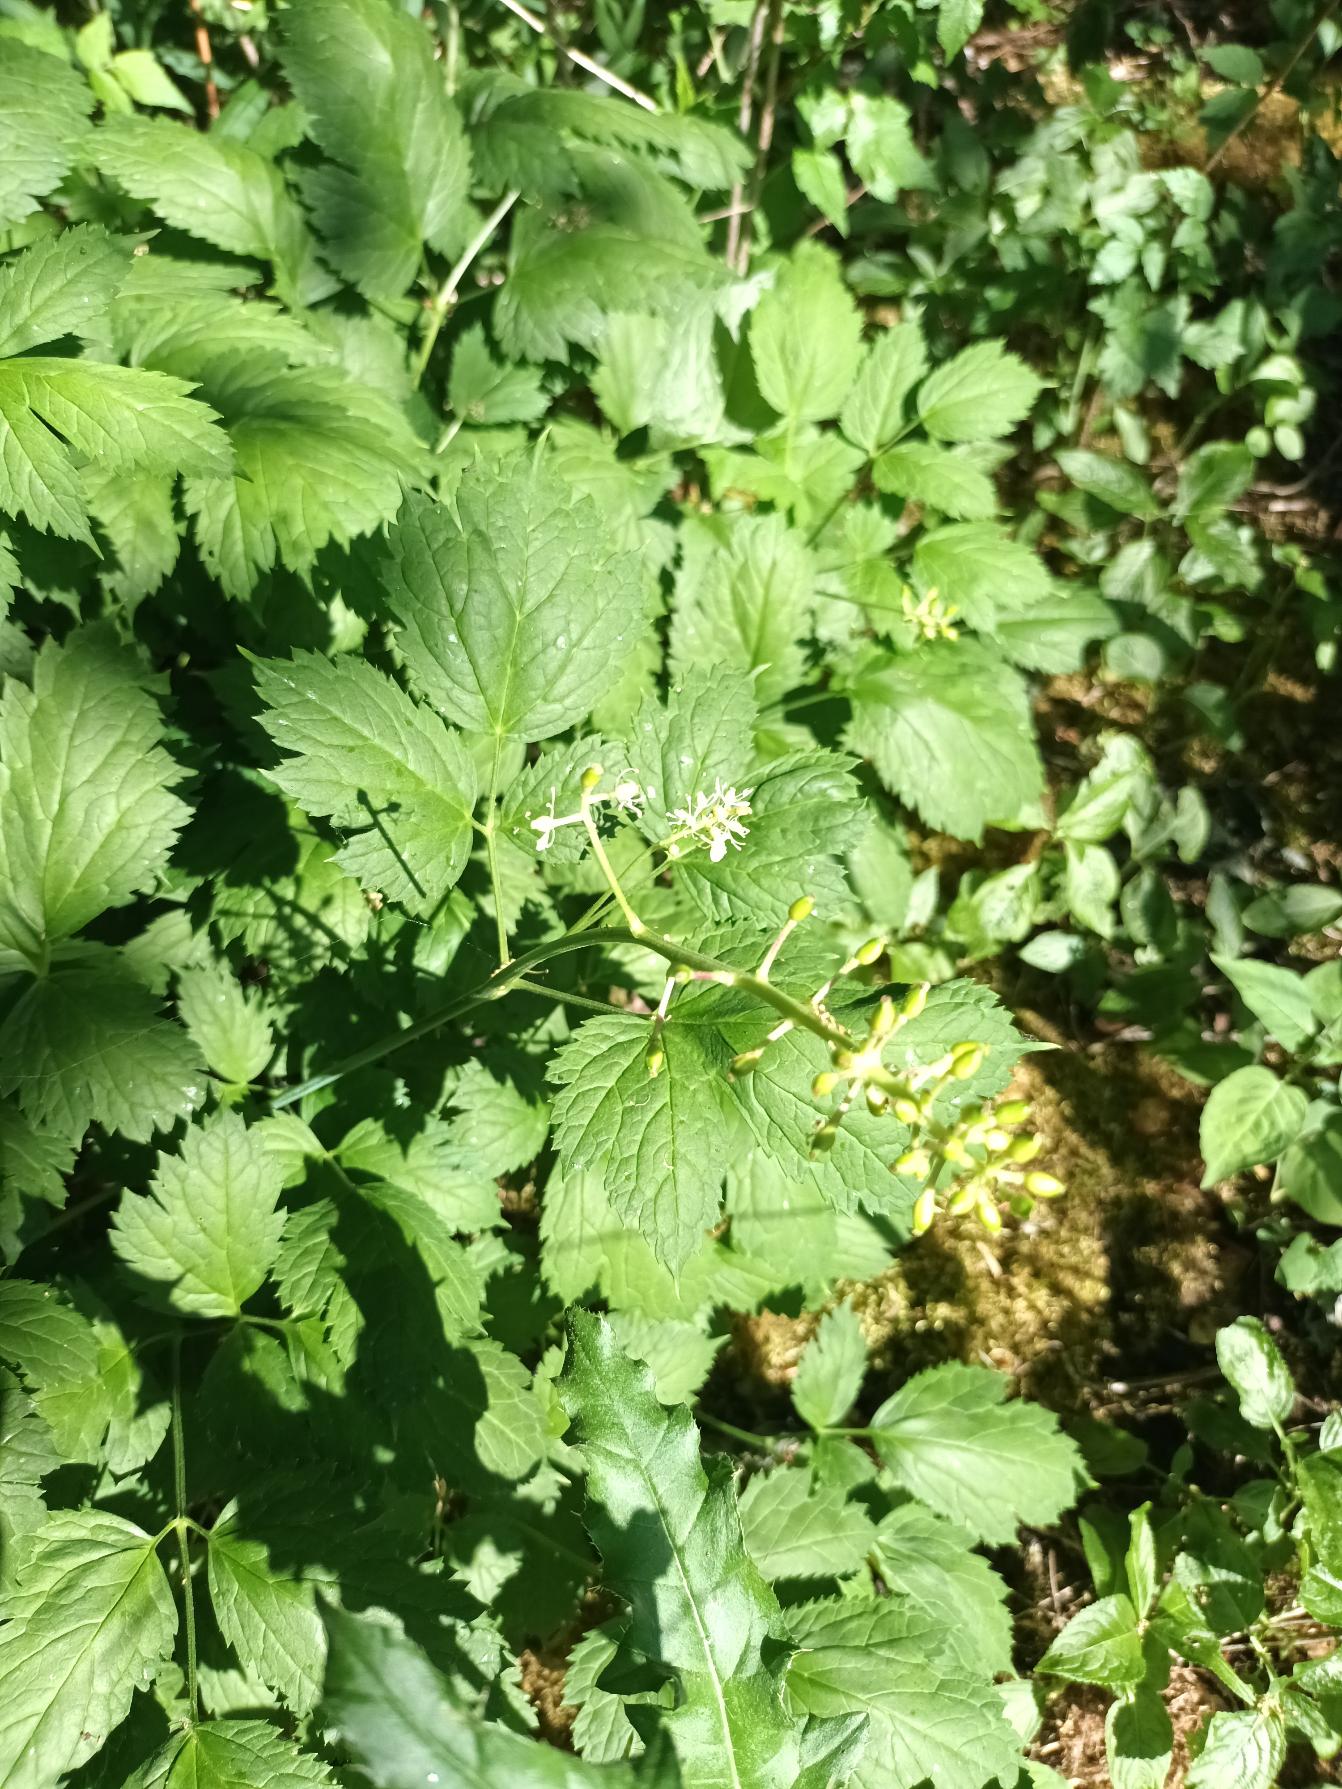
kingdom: Plantae
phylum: Tracheophyta
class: Magnoliopsida
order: Ranunculales
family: Ranunculaceae
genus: Actaea
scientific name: Actaea spicata
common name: Druemunke
